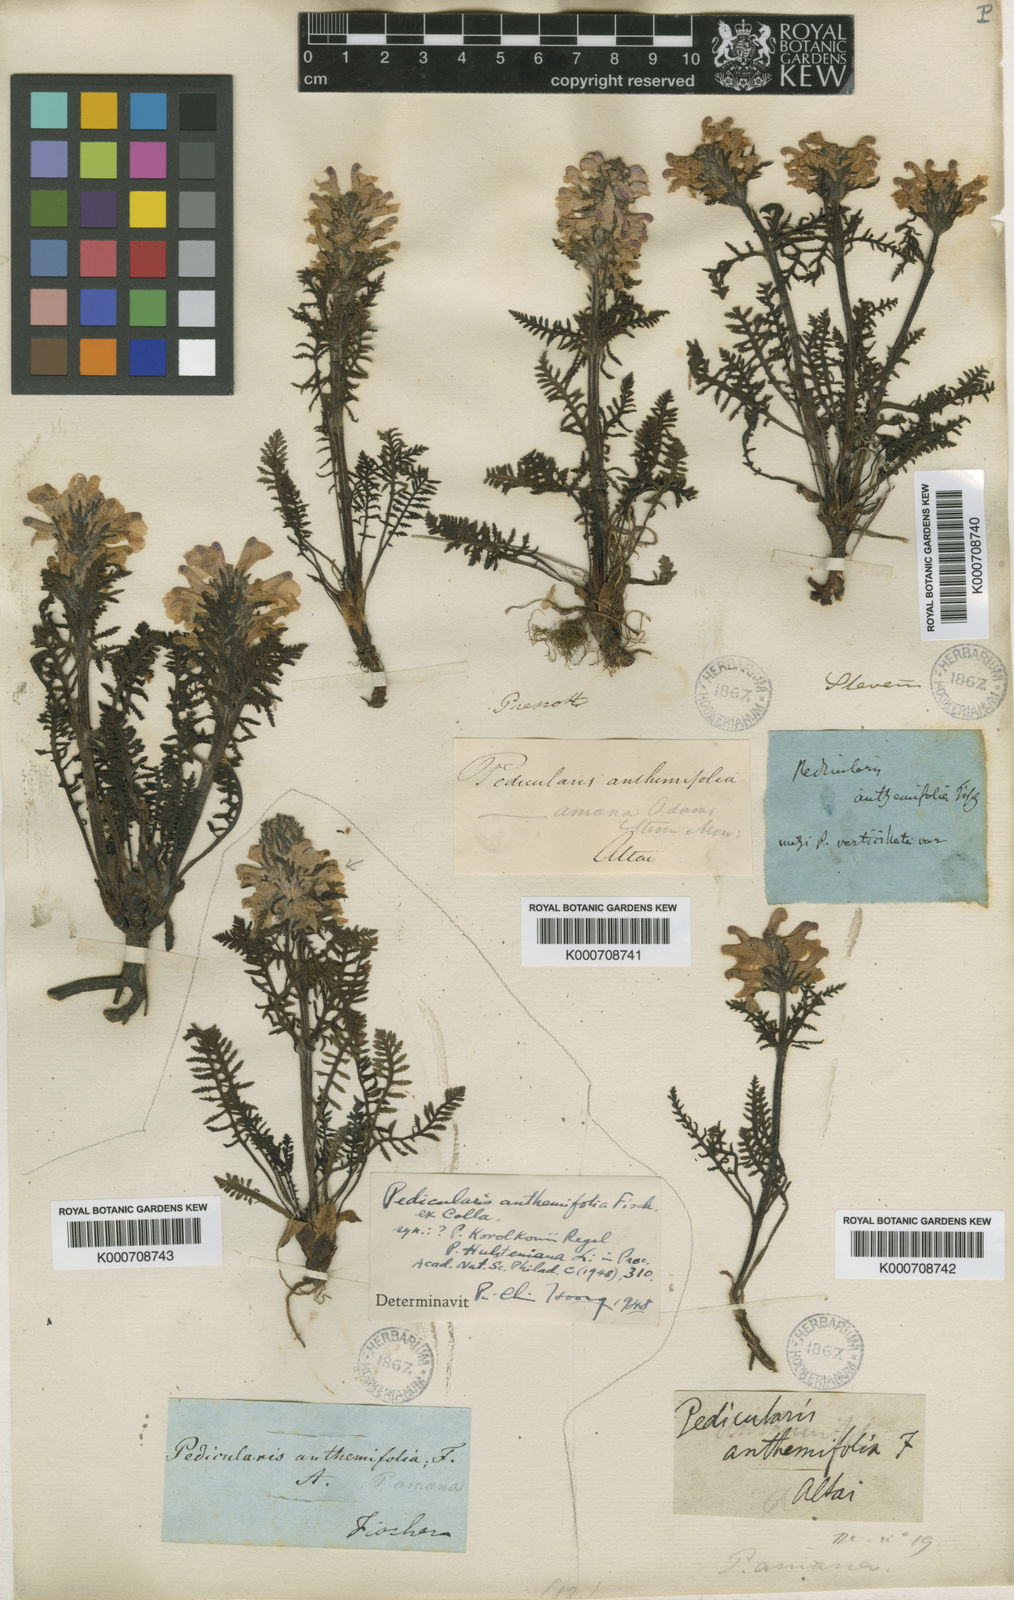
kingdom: Plantae
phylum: Tracheophyta
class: Magnoliopsida
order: Lamiales
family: Orobanchaceae
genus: Pedicularis
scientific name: Pedicularis amoena
